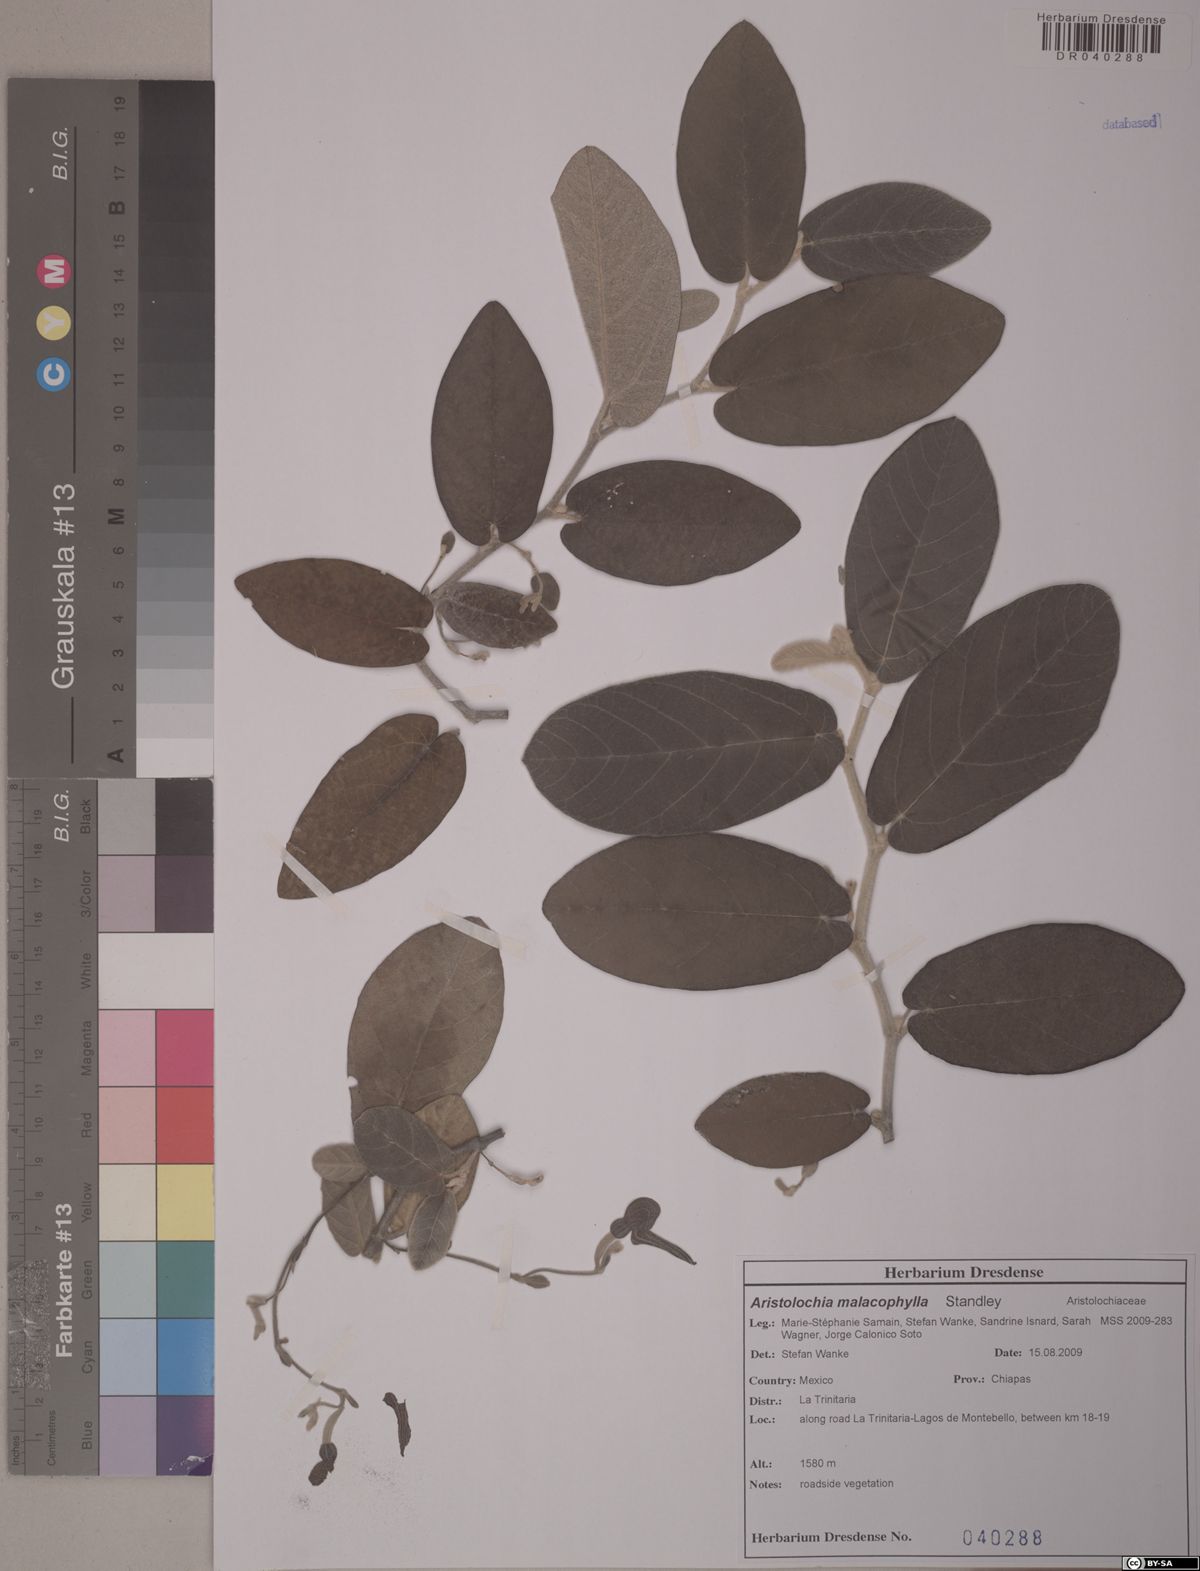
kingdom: Plantae
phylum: Tracheophyta
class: Magnoliopsida
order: Piperales
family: Aristolochiaceae
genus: Isotrema
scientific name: Isotrema malacophyllum
